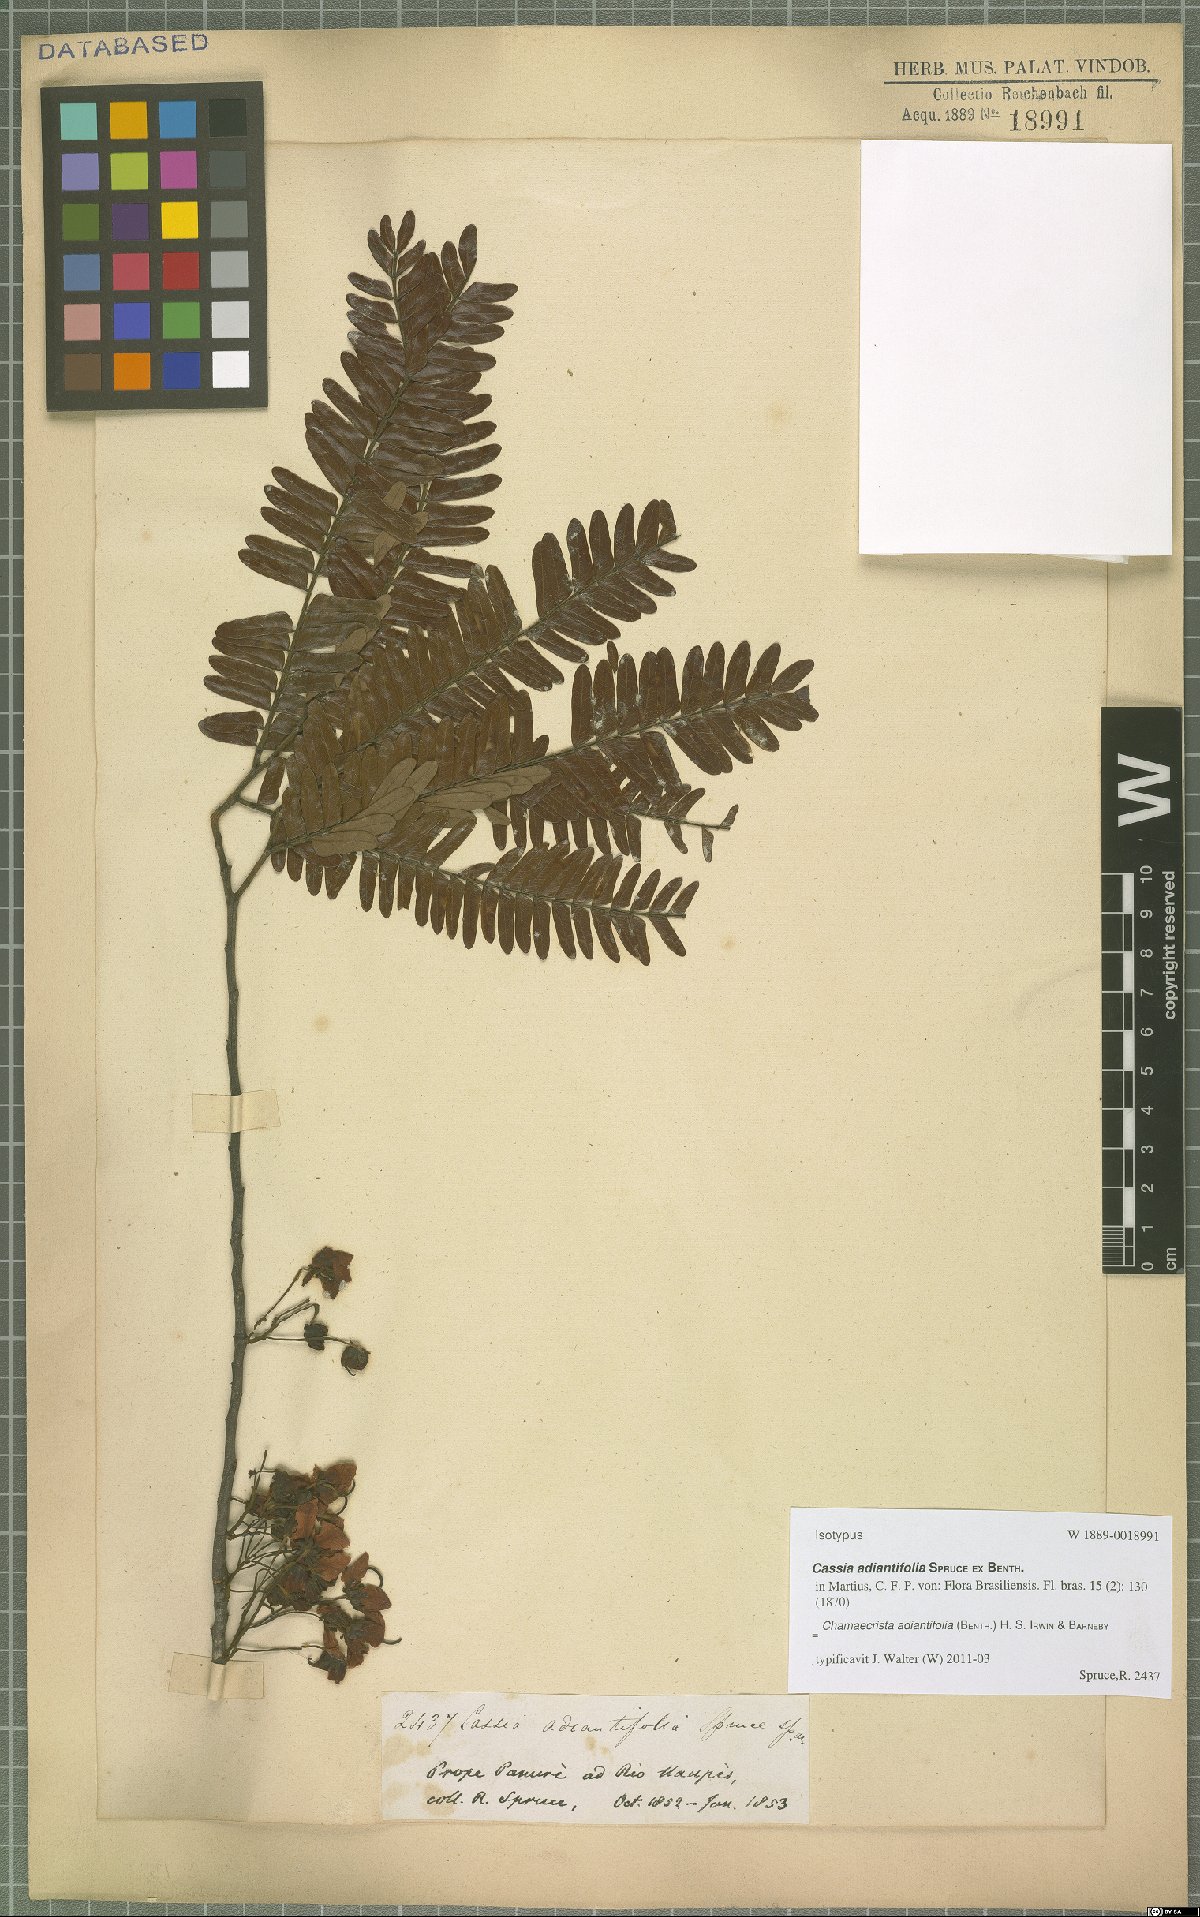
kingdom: Plantae
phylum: Tracheophyta
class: Magnoliopsida
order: Fabales
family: Fabaceae
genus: Chamaecrista
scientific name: Chamaecrista adiantifolia
